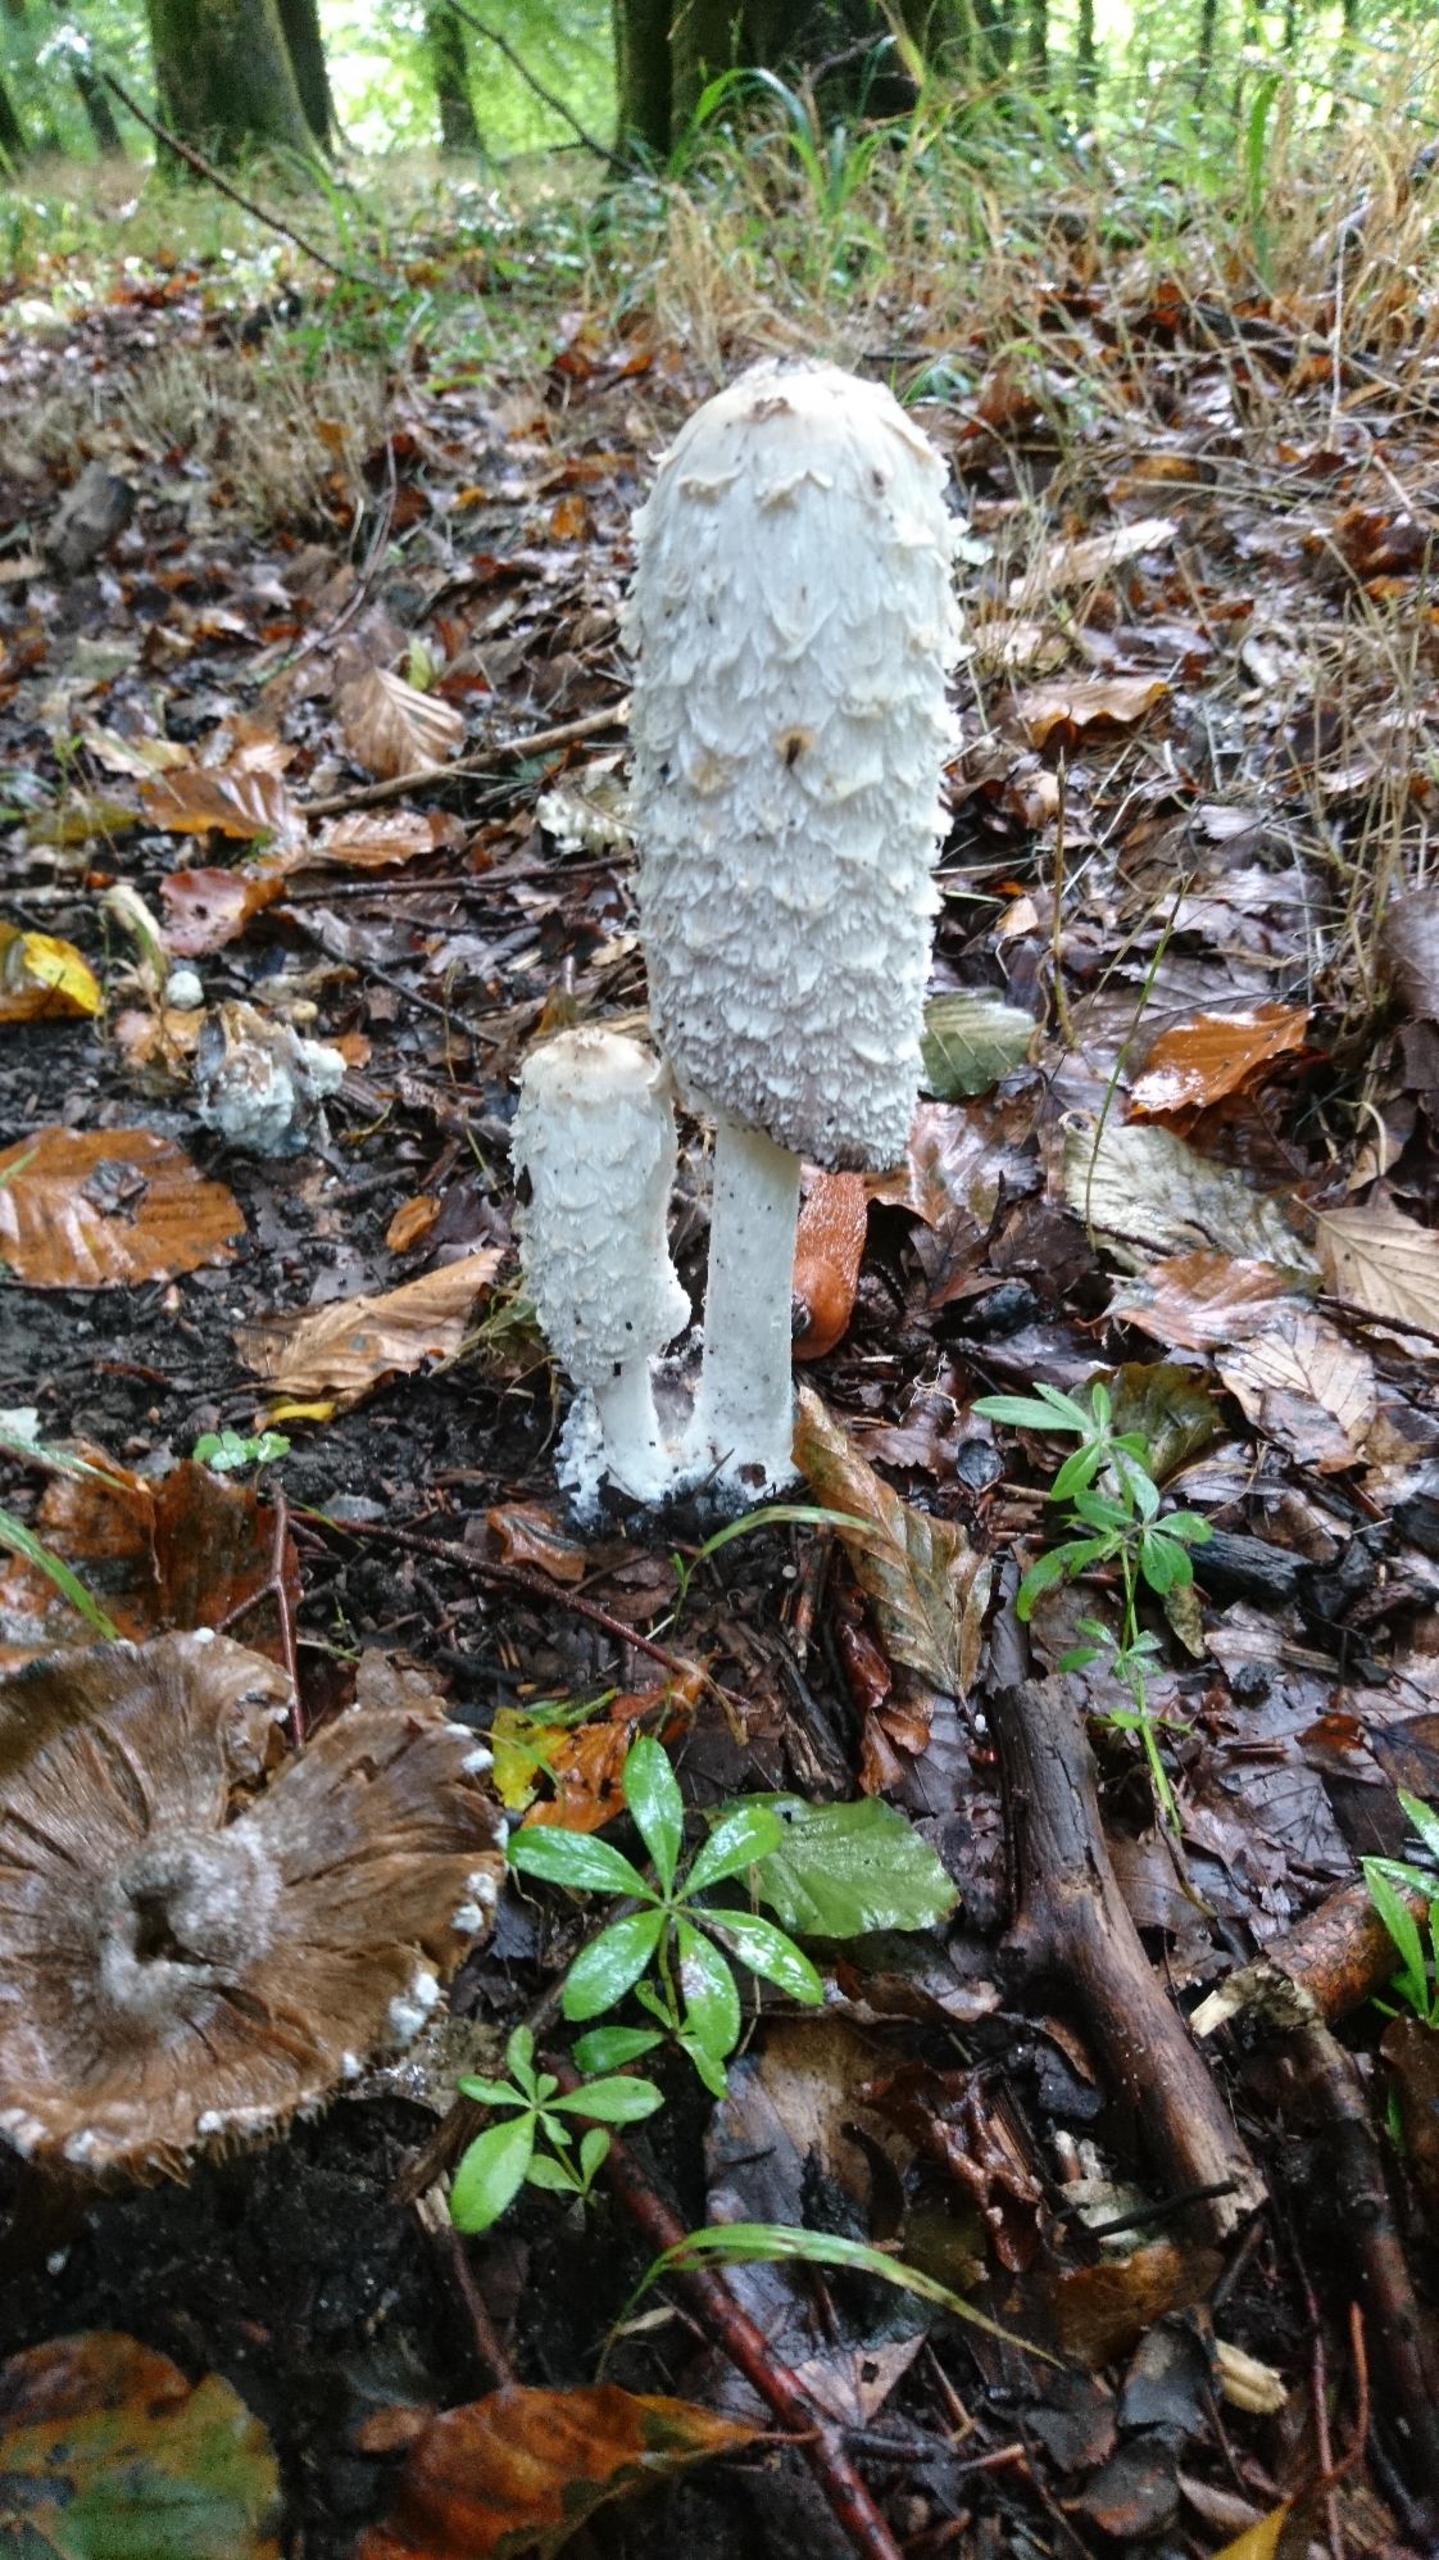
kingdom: Fungi
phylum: Basidiomycota
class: Agaricomycetes
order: Agaricales
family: Agaricaceae
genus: Coprinus
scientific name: Coprinus comatus
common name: Stor parykhat
